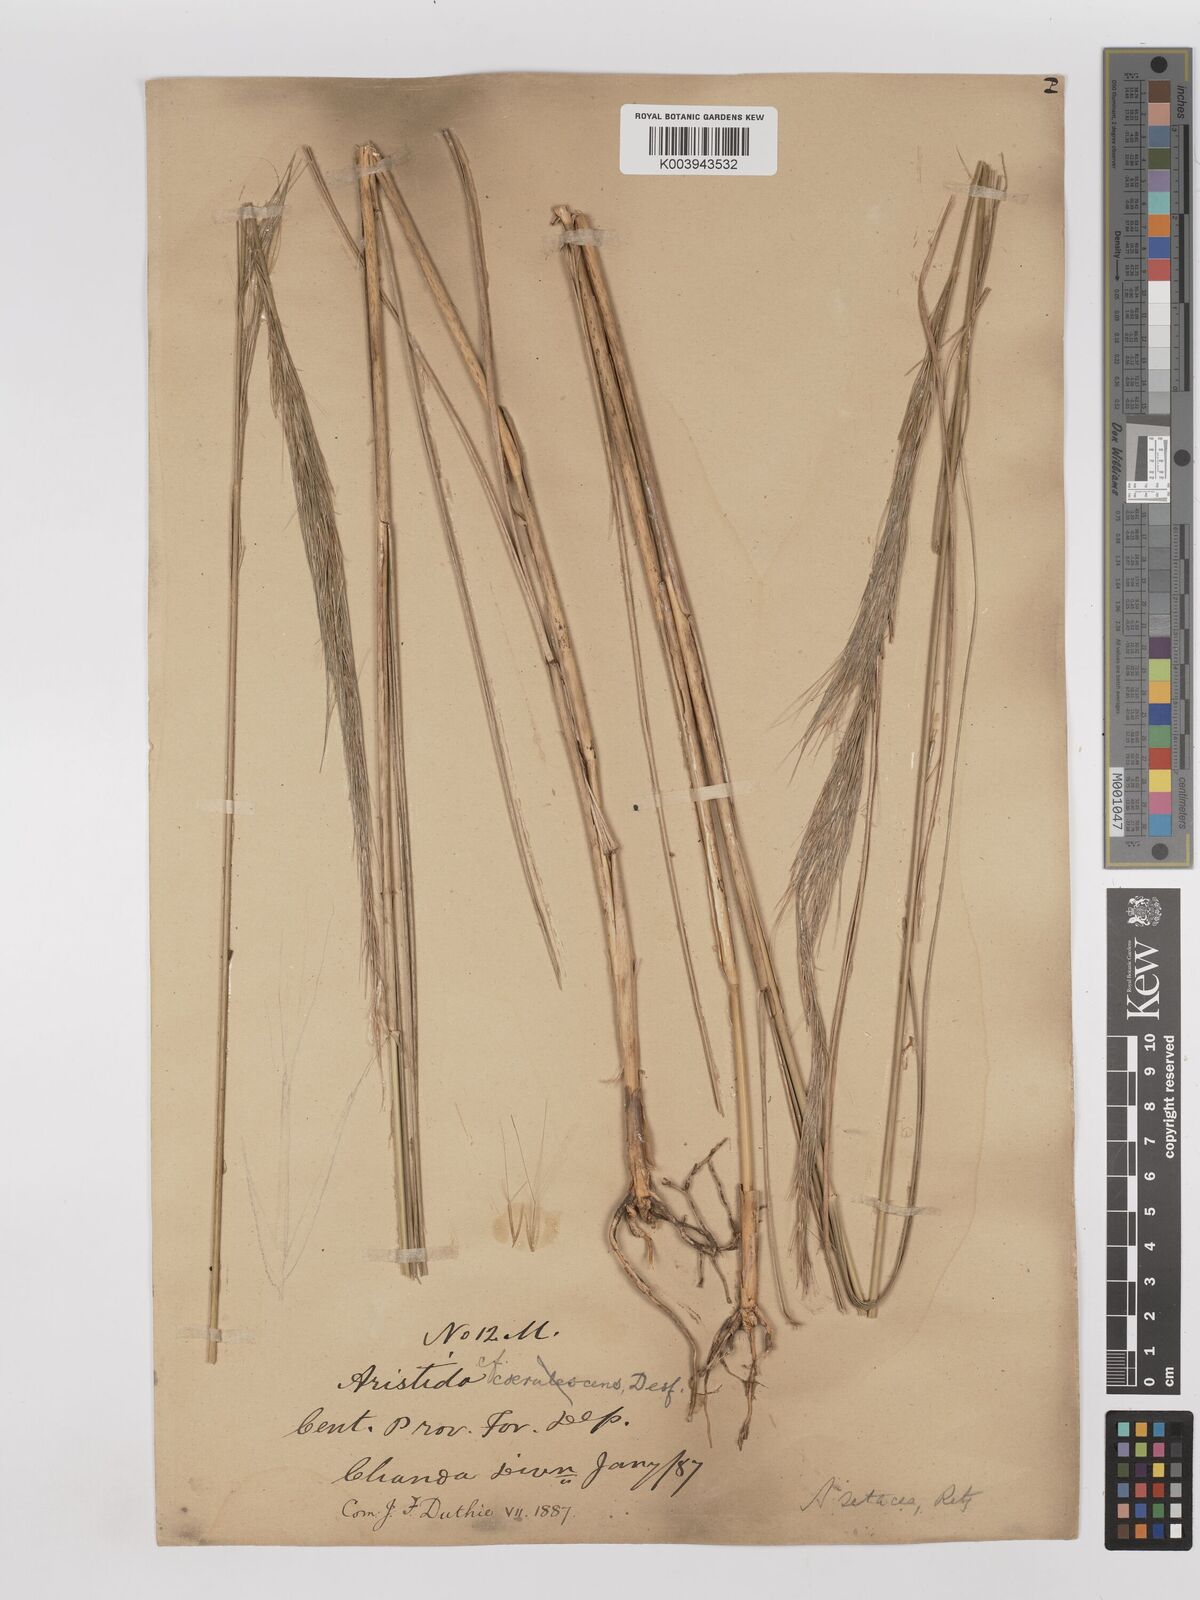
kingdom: Plantae
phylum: Tracheophyta
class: Liliopsida
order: Poales
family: Poaceae
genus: Aristida
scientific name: Aristida setacea
